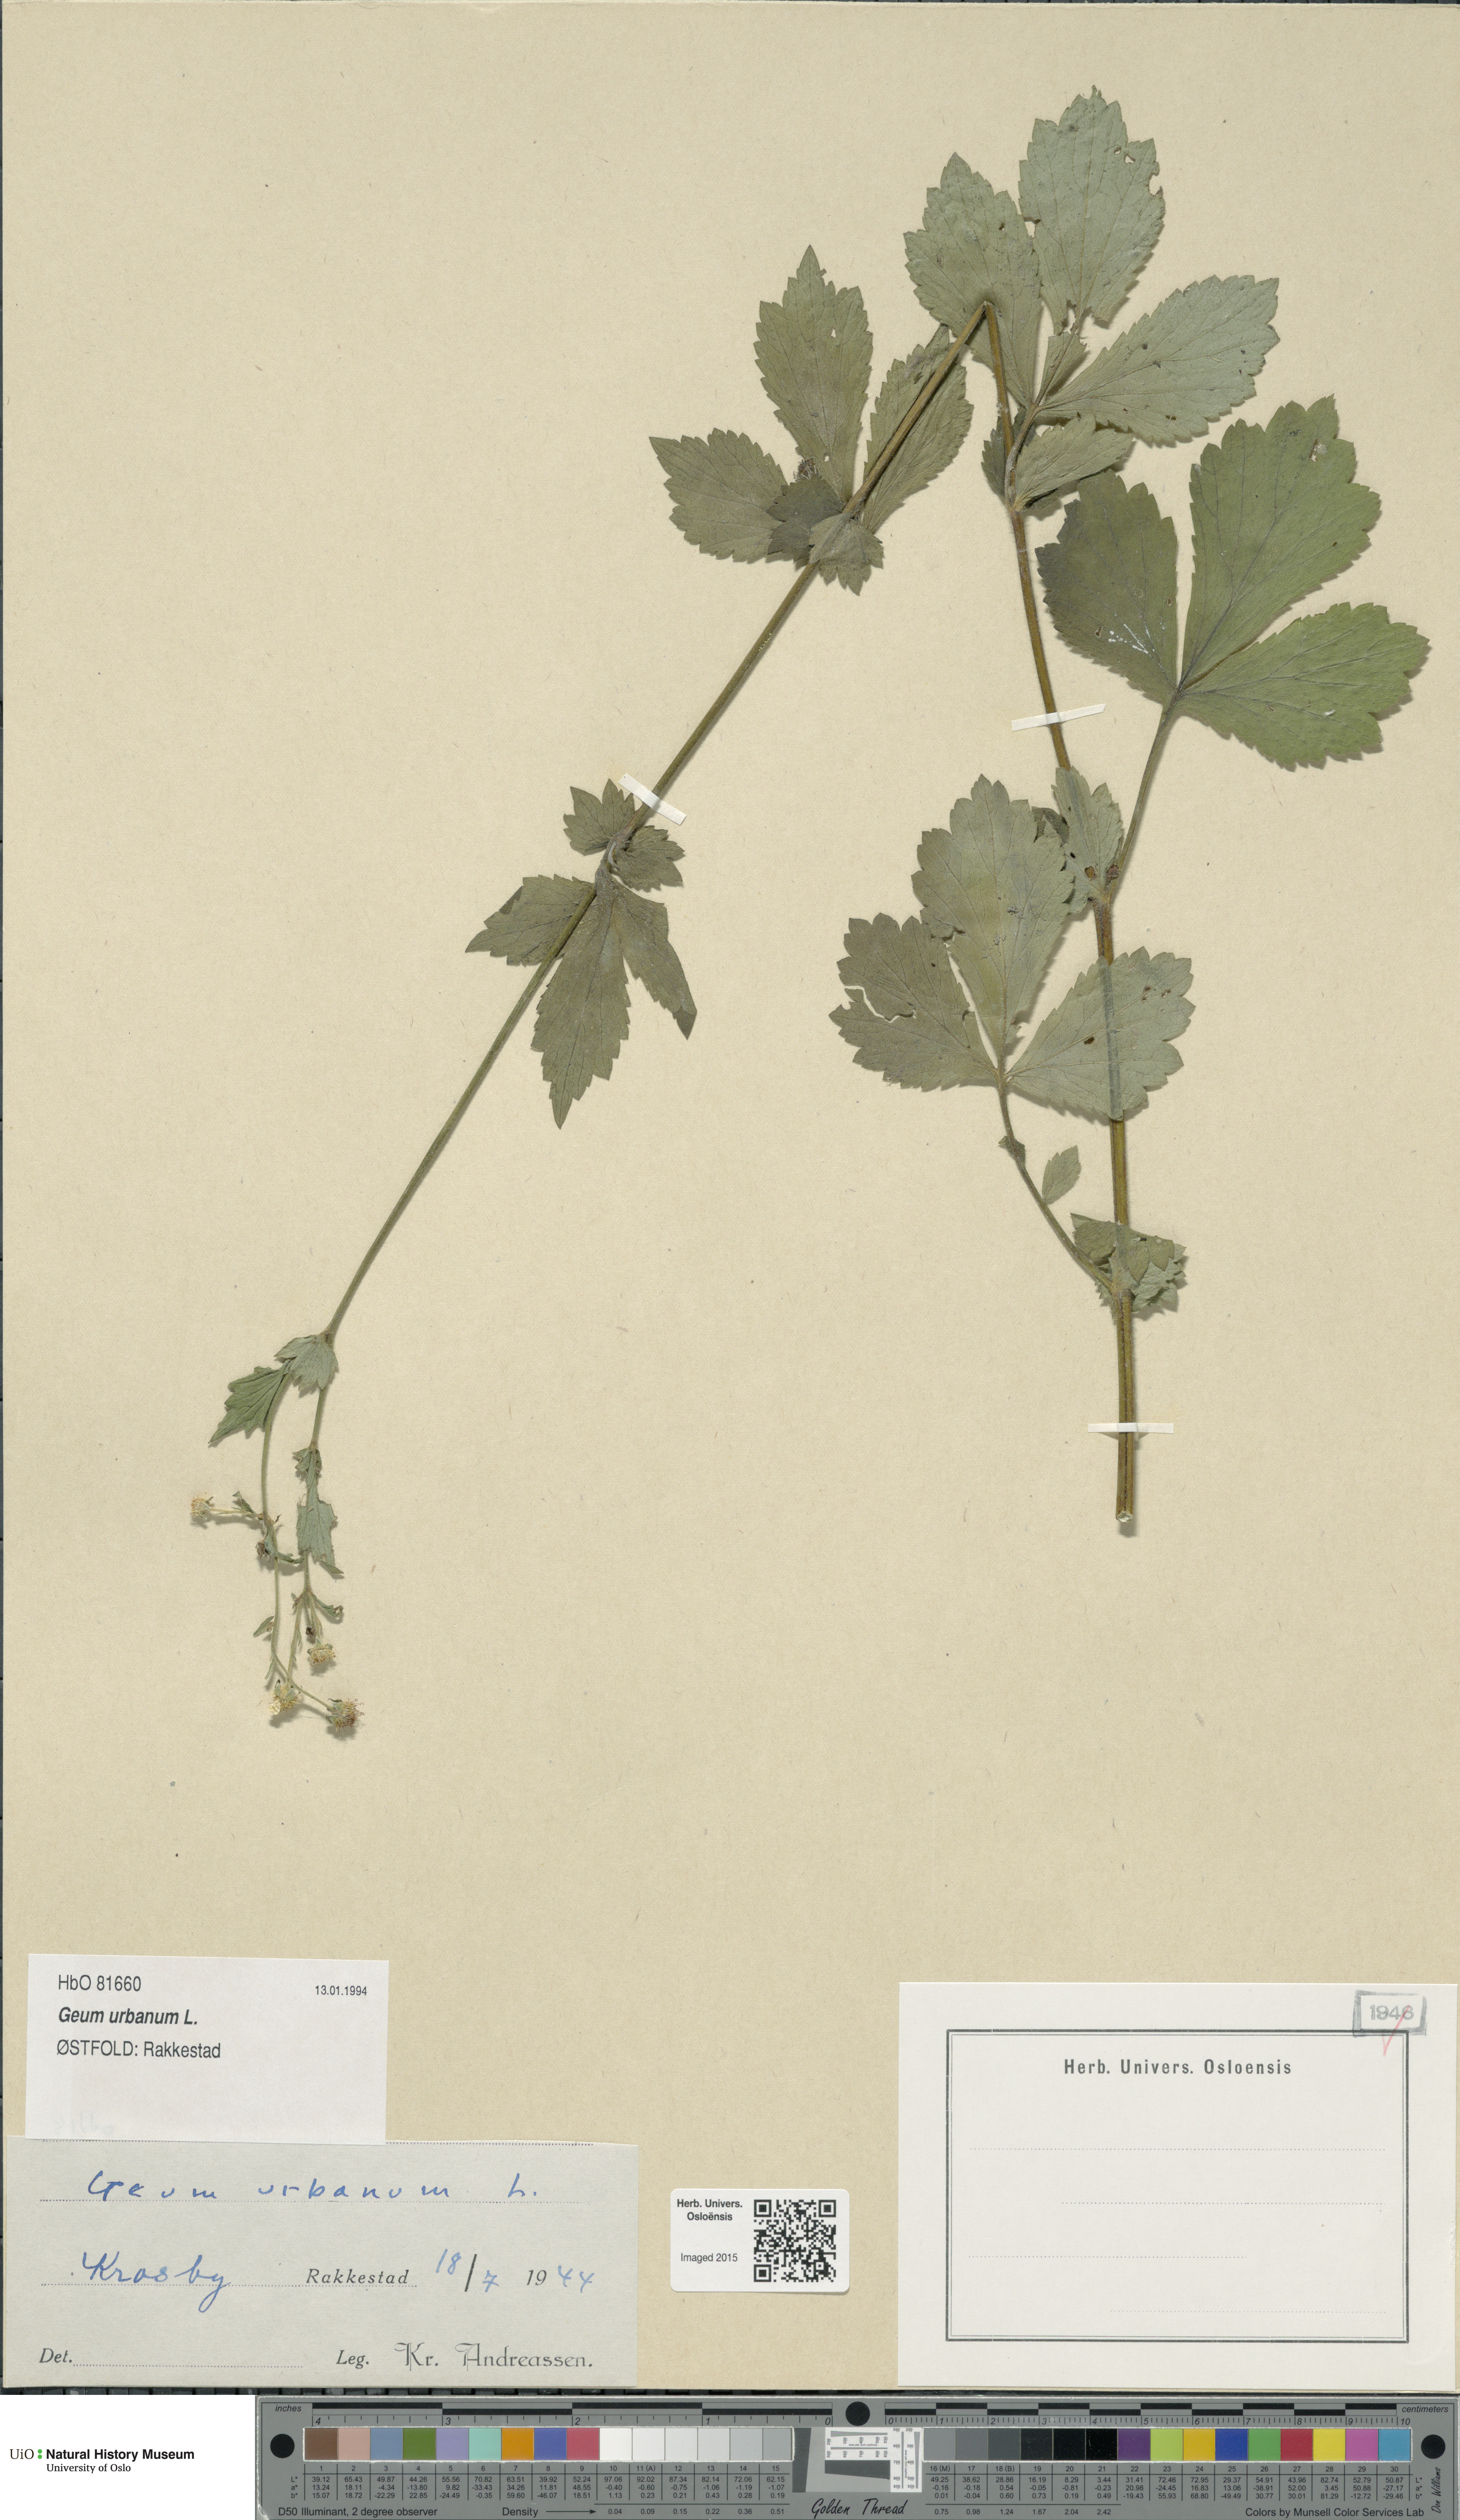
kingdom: Plantae
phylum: Tracheophyta
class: Magnoliopsida
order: Rosales
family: Rosaceae
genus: Geum
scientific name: Geum urbanum
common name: Wood avens
